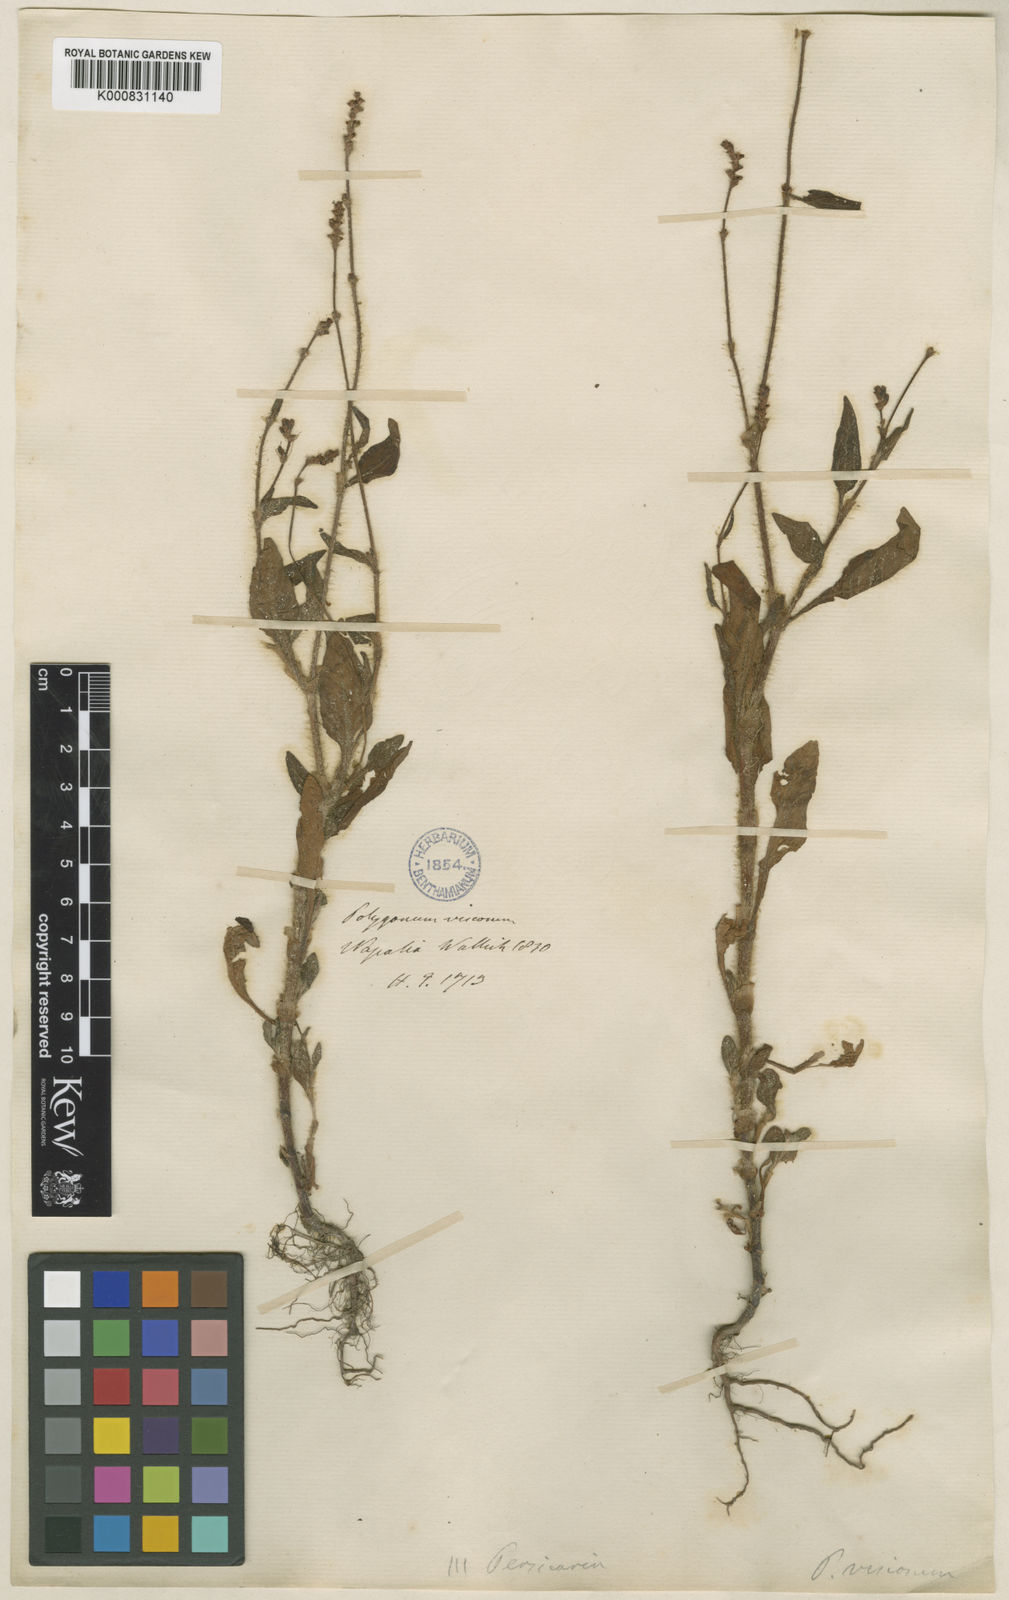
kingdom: Plantae
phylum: Tracheophyta
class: Magnoliopsida
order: Caryophyllales
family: Polygonaceae
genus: Persicaria
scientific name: Persicaria viscosa
